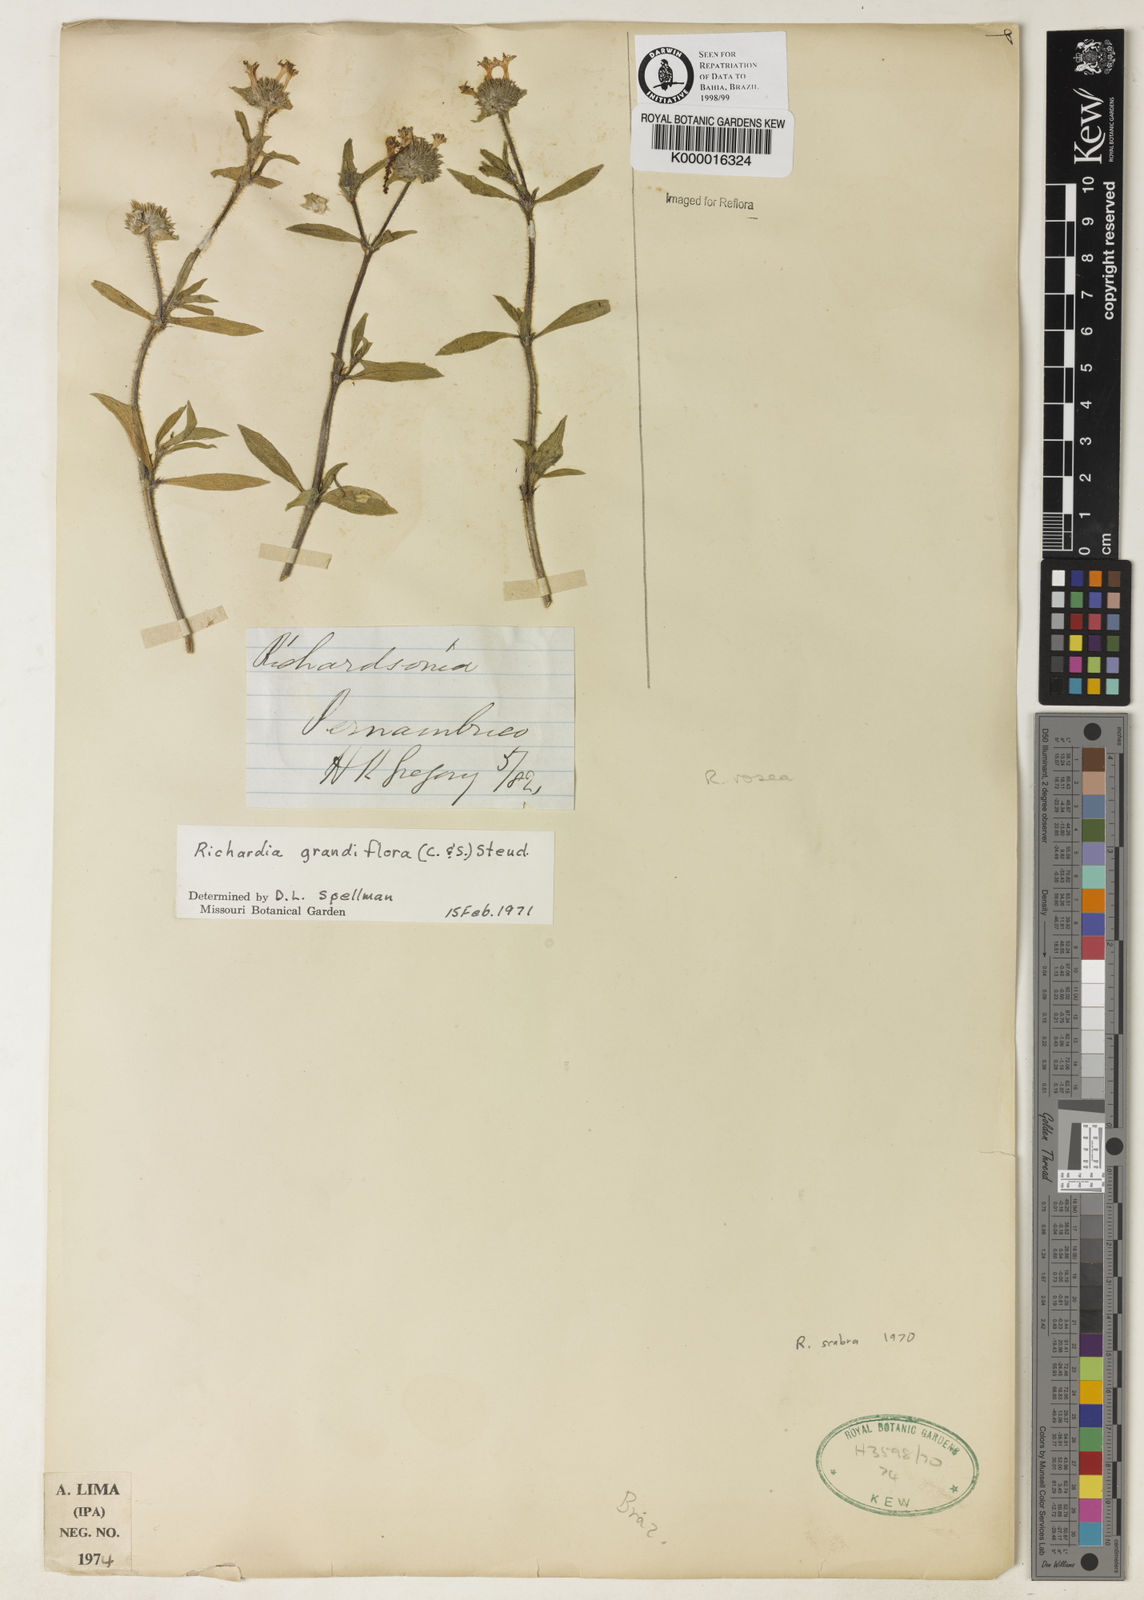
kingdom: Plantae
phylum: Tracheophyta
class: Magnoliopsida
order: Gentianales
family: Rubiaceae
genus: Richardia
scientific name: Richardia grandiflora
